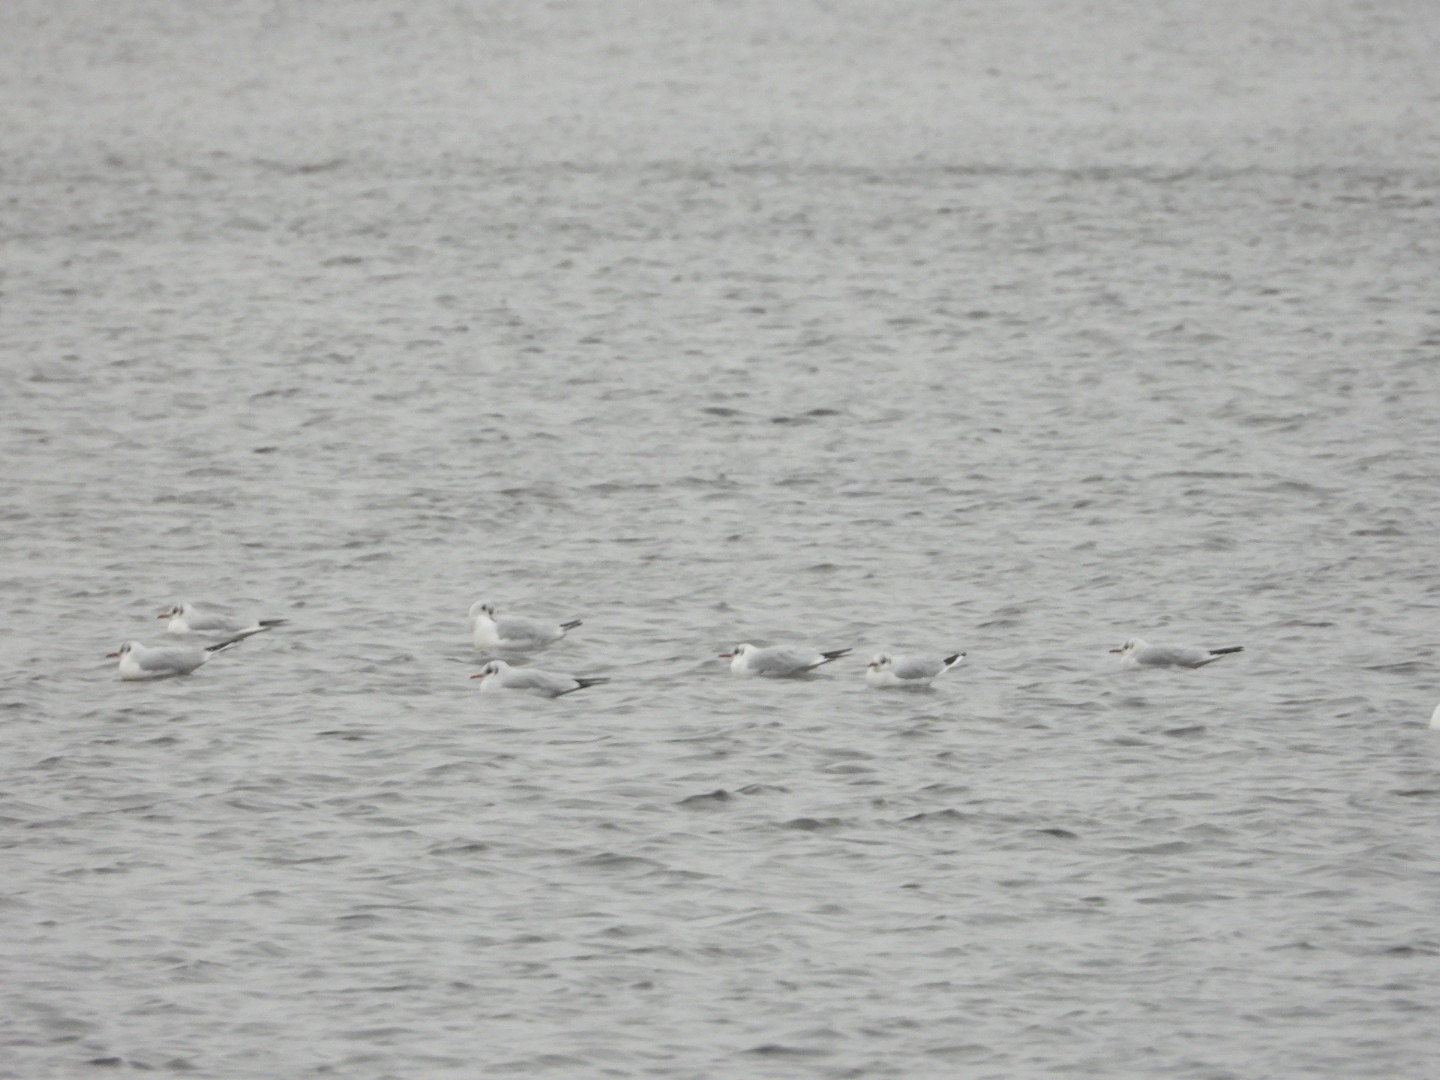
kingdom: Animalia
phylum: Chordata
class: Aves
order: Charadriiformes
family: Laridae
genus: Chroicocephalus
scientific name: Chroicocephalus ridibundus
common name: Hættemåge
